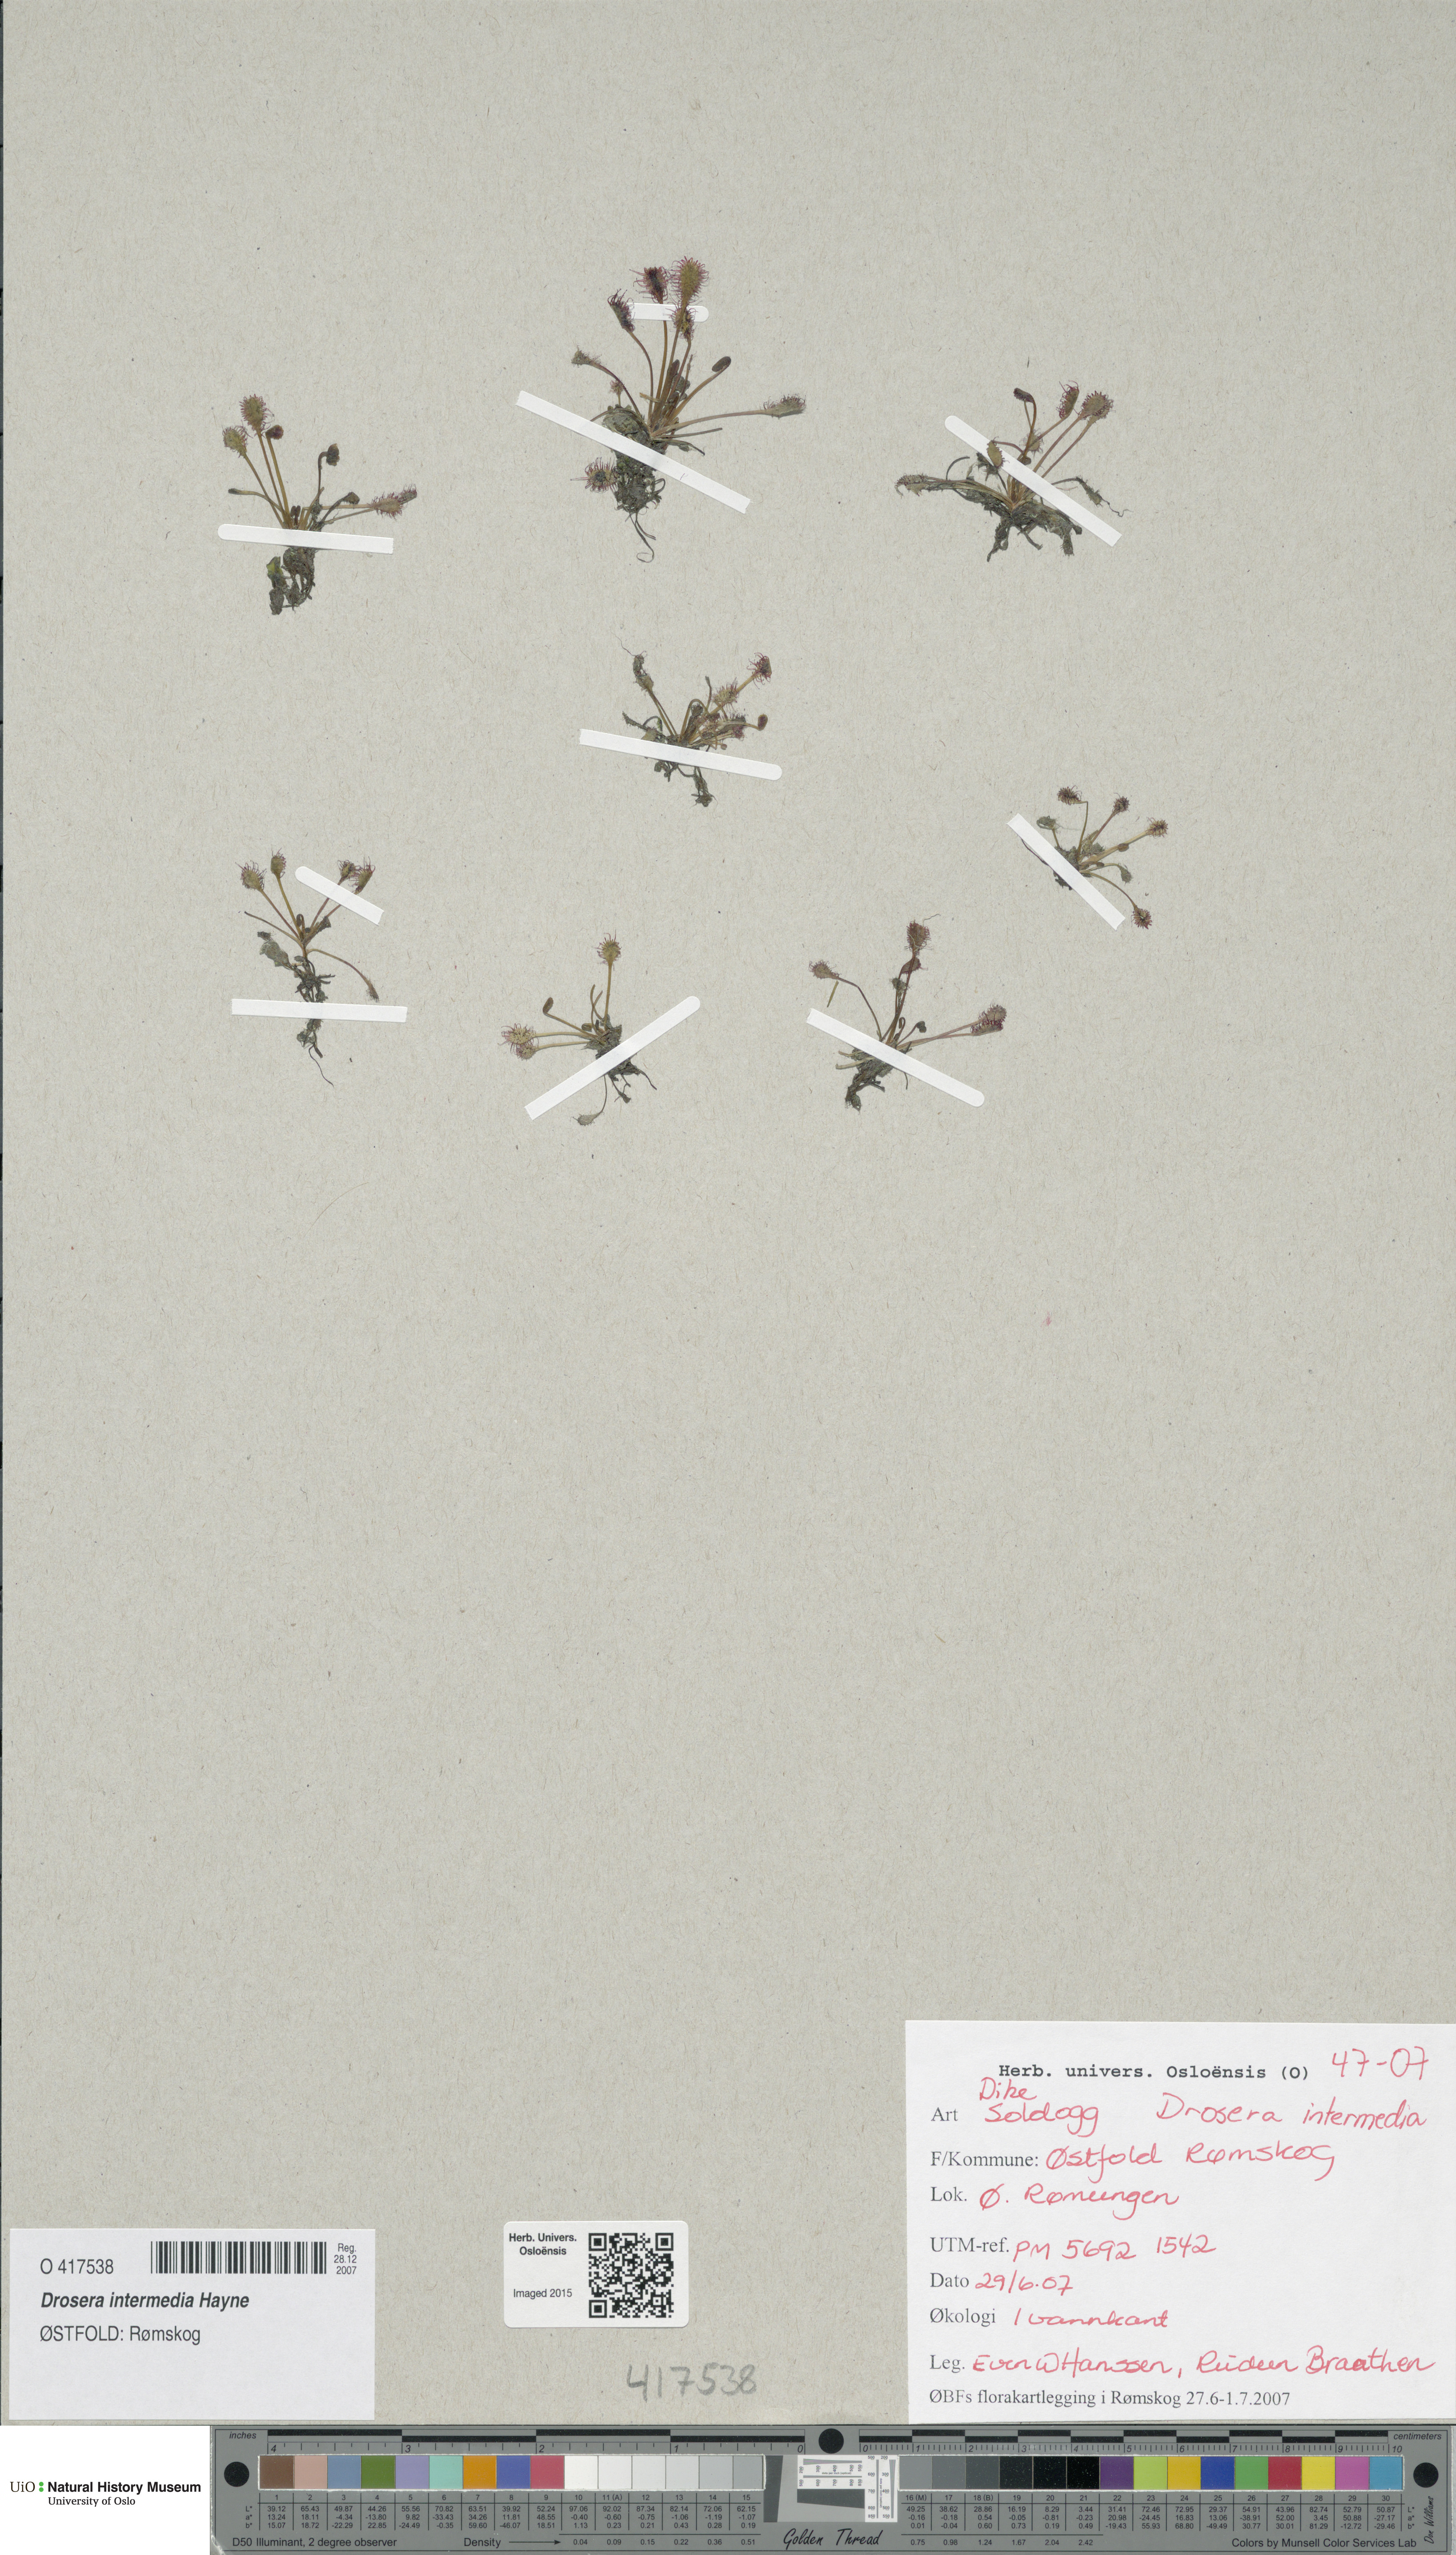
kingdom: Plantae
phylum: Tracheophyta
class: Magnoliopsida
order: Caryophyllales
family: Droseraceae
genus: Drosera
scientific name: Drosera intermedia
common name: Oblong-leaved sundew
